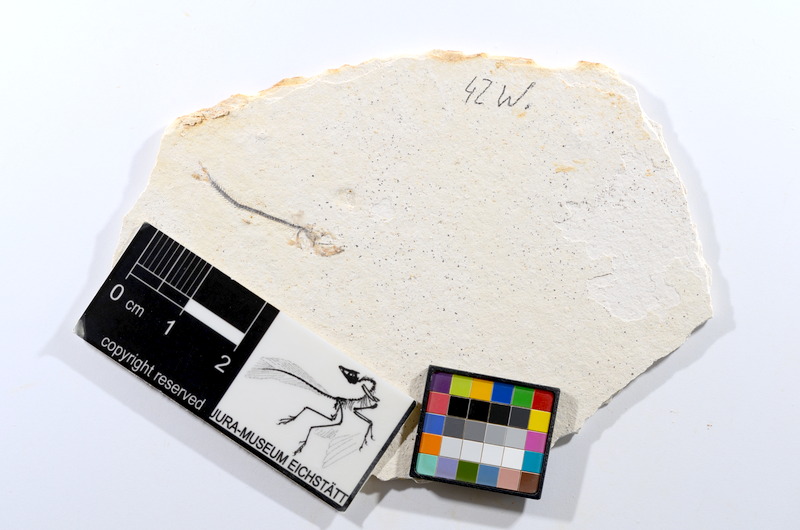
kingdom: Animalia
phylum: Chordata
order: Salmoniformes
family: Orthogonikleithridae
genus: Orthogonikleithrus
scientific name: Orthogonikleithrus hoelli
